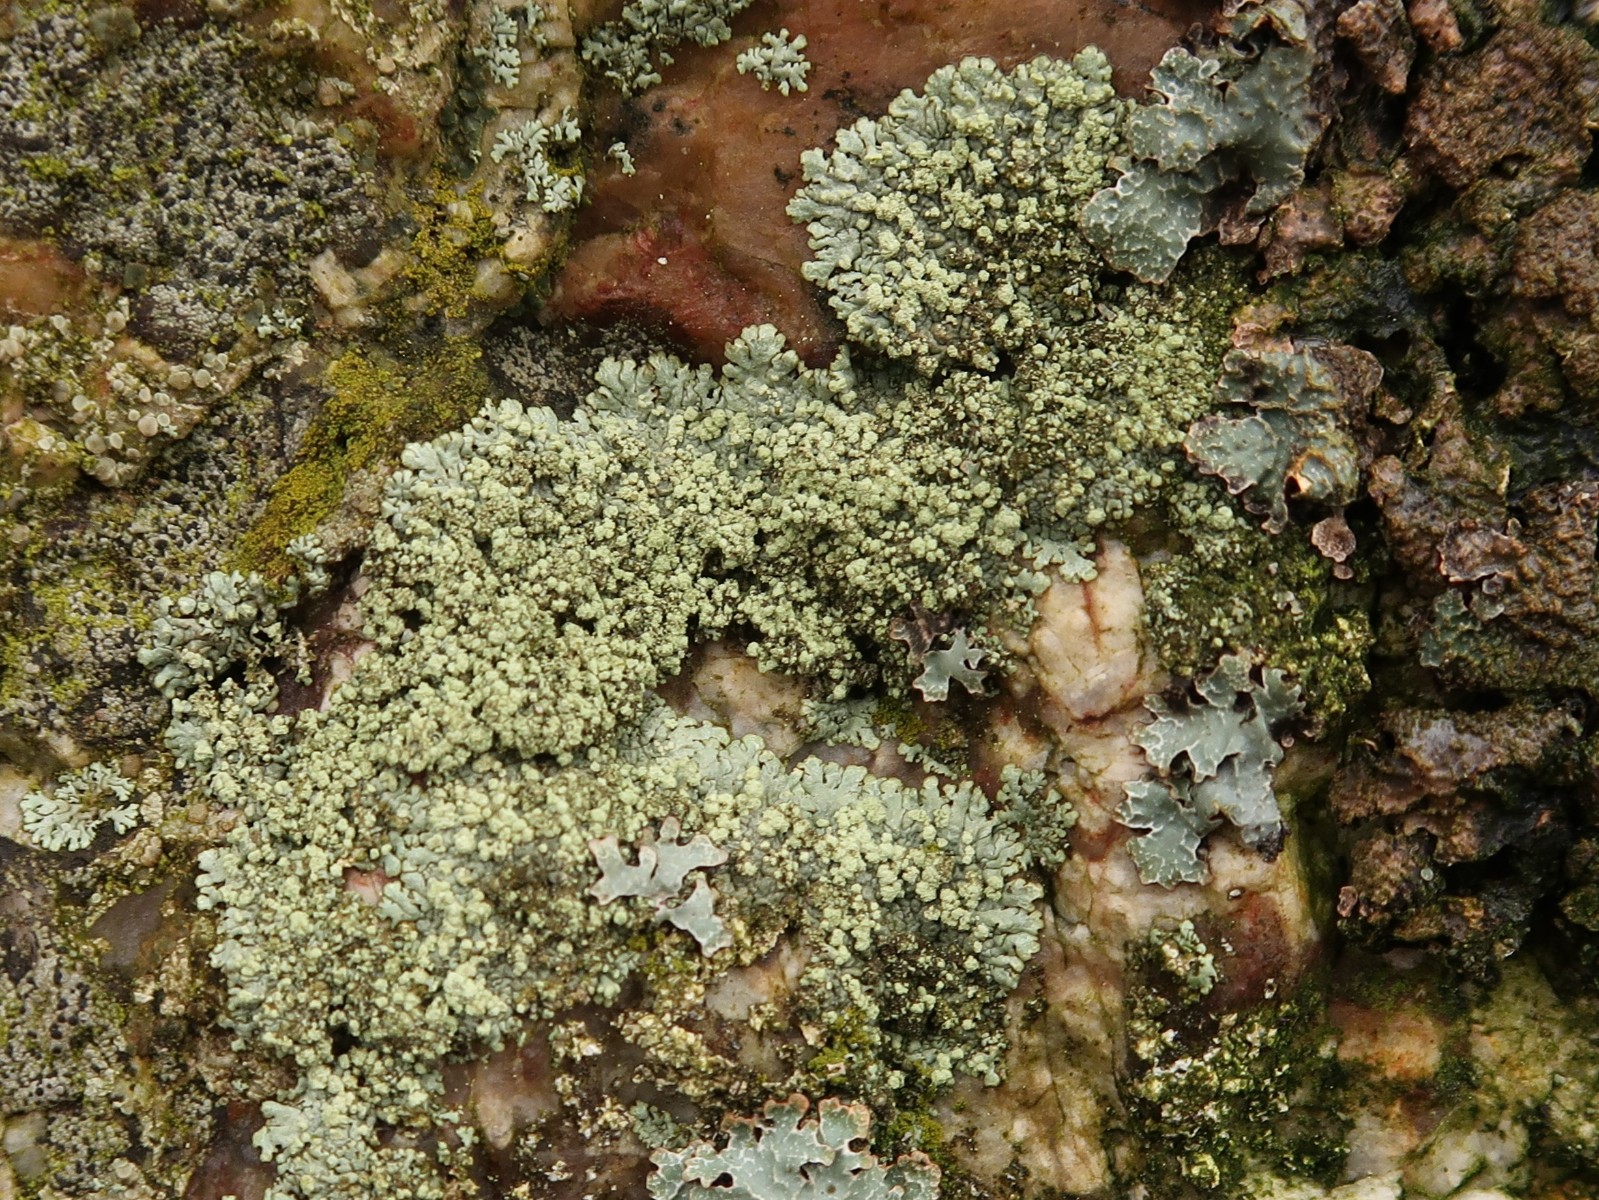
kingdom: Fungi
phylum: Ascomycota
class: Lecanoromycetes
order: Lecanorales
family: Parmeliaceae
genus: Xanthoparmelia
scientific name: Xanthoparmelia mougeotii
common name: liden skållav
